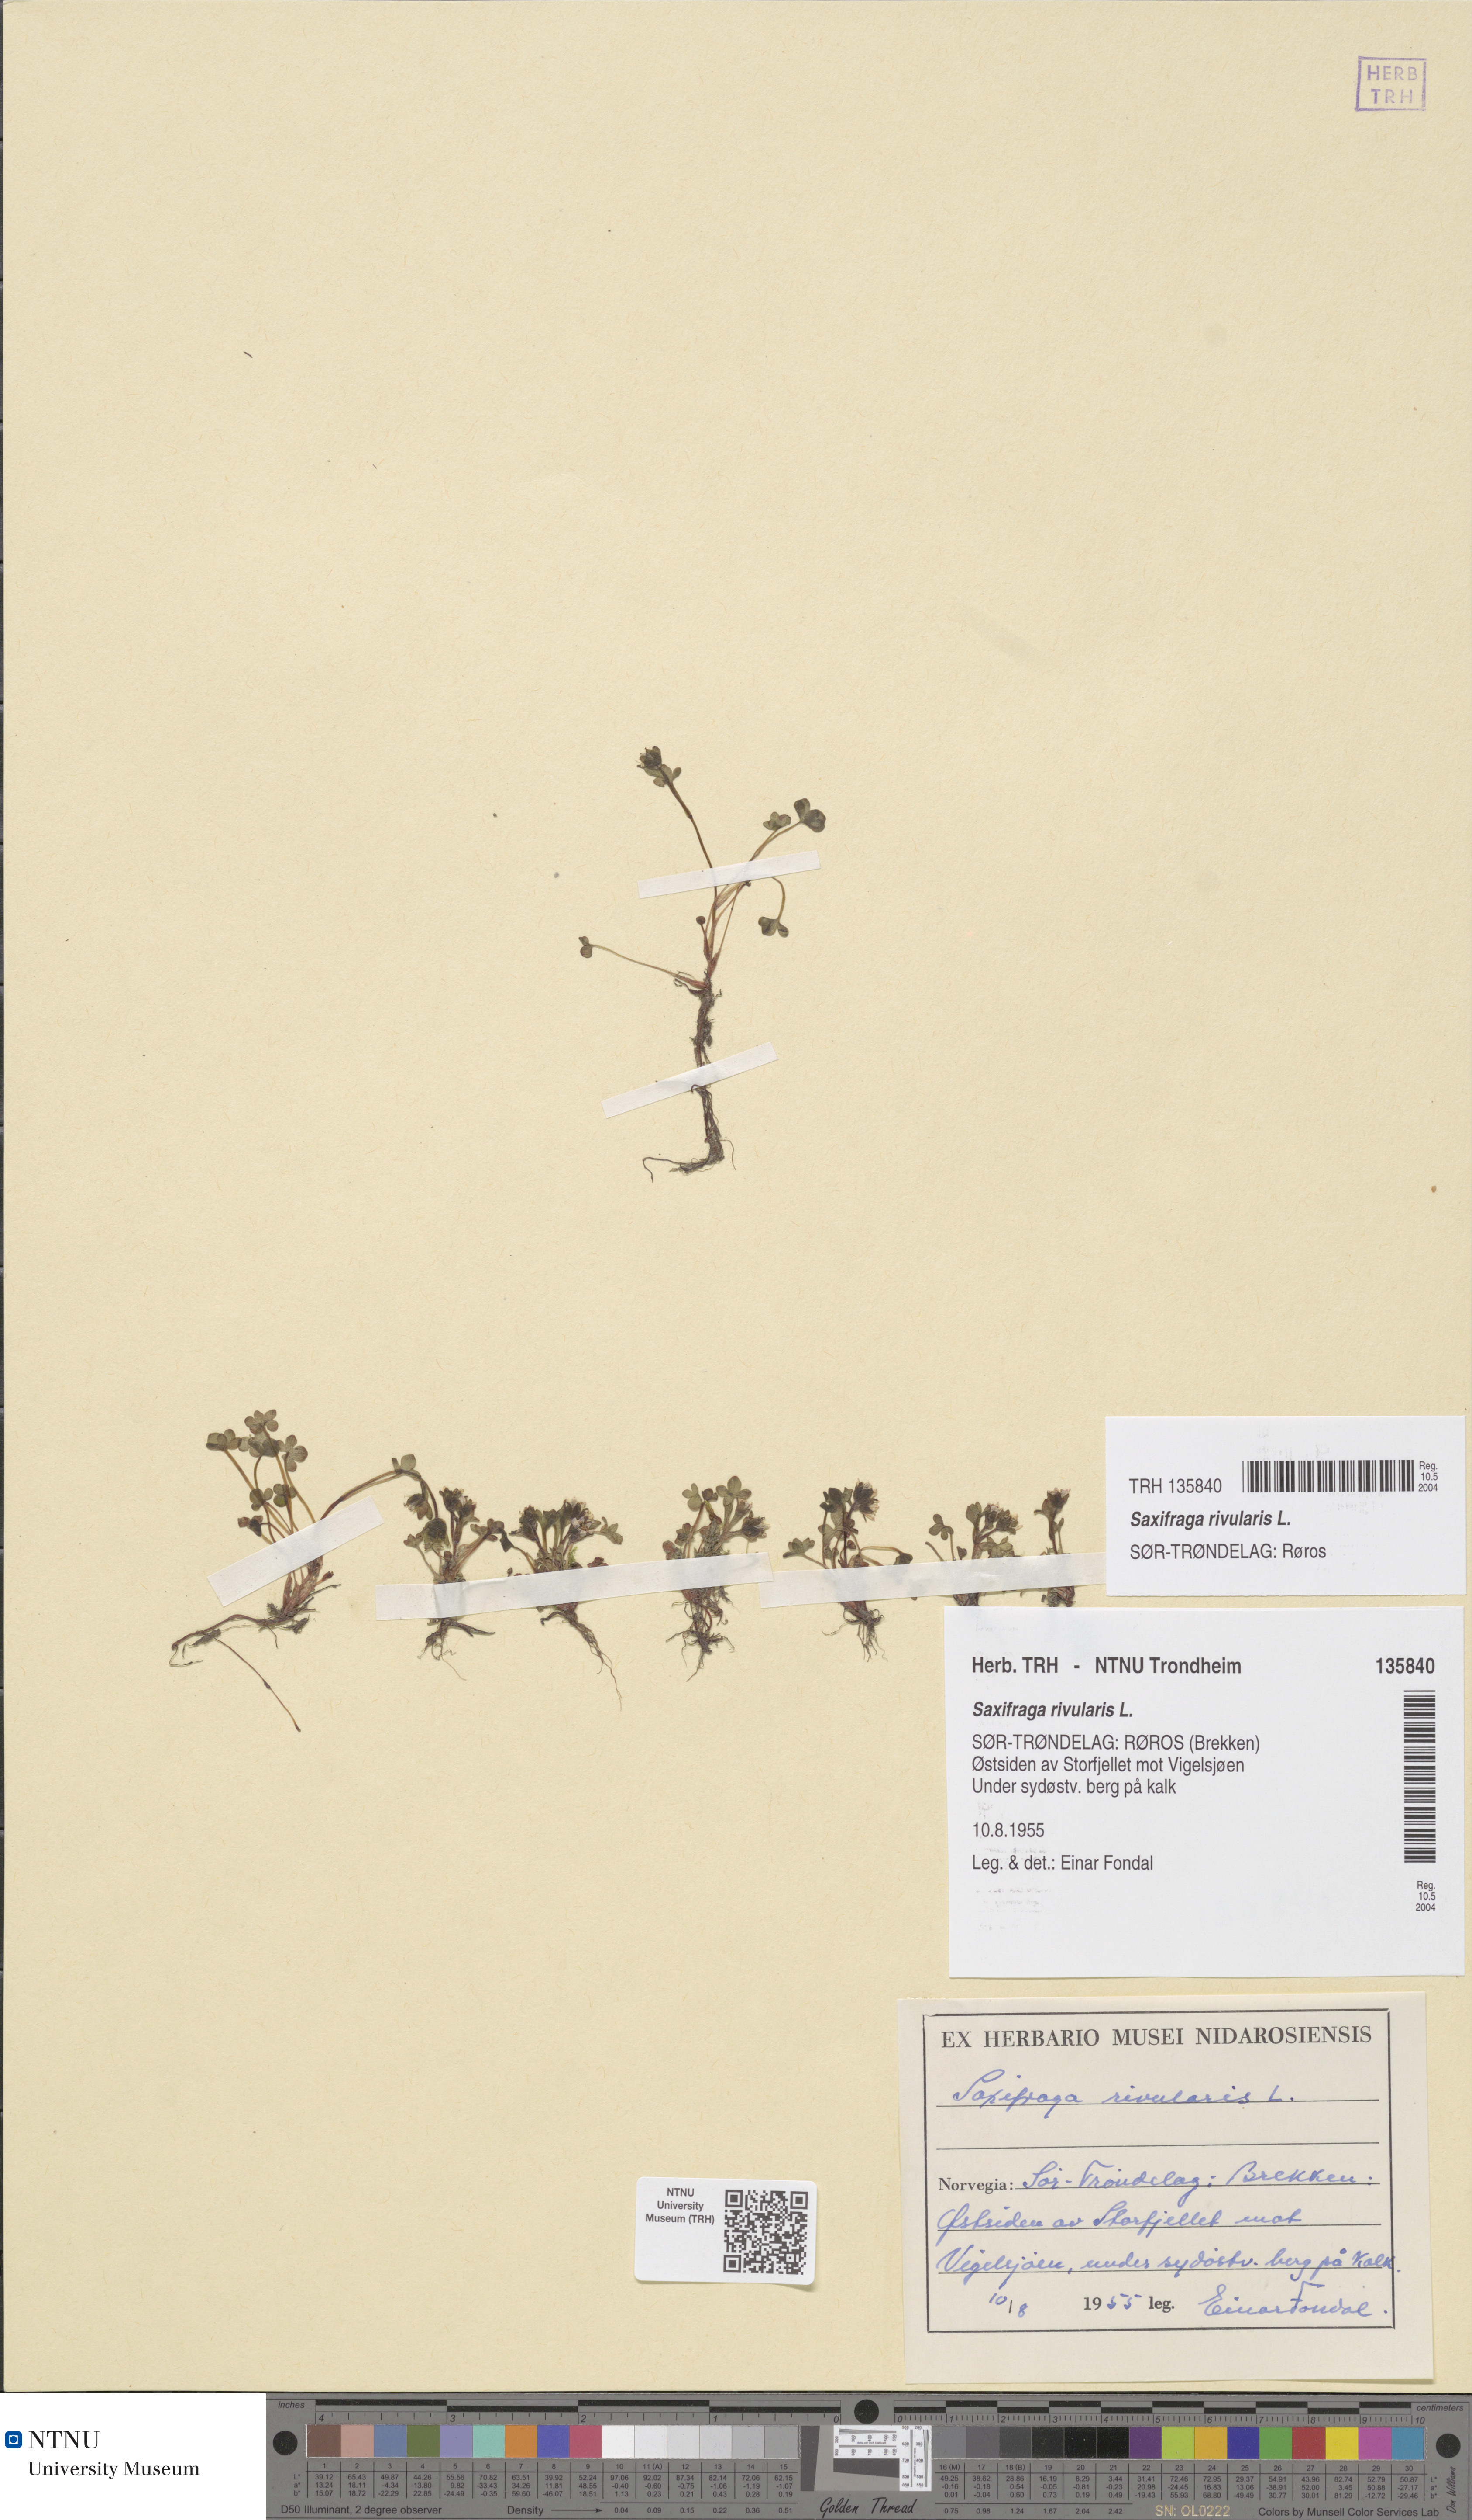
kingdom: Plantae
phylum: Tracheophyta
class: Magnoliopsida
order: Saxifragales
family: Saxifragaceae
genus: Saxifraga
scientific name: Saxifraga rivularis
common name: Highland saxifrage
